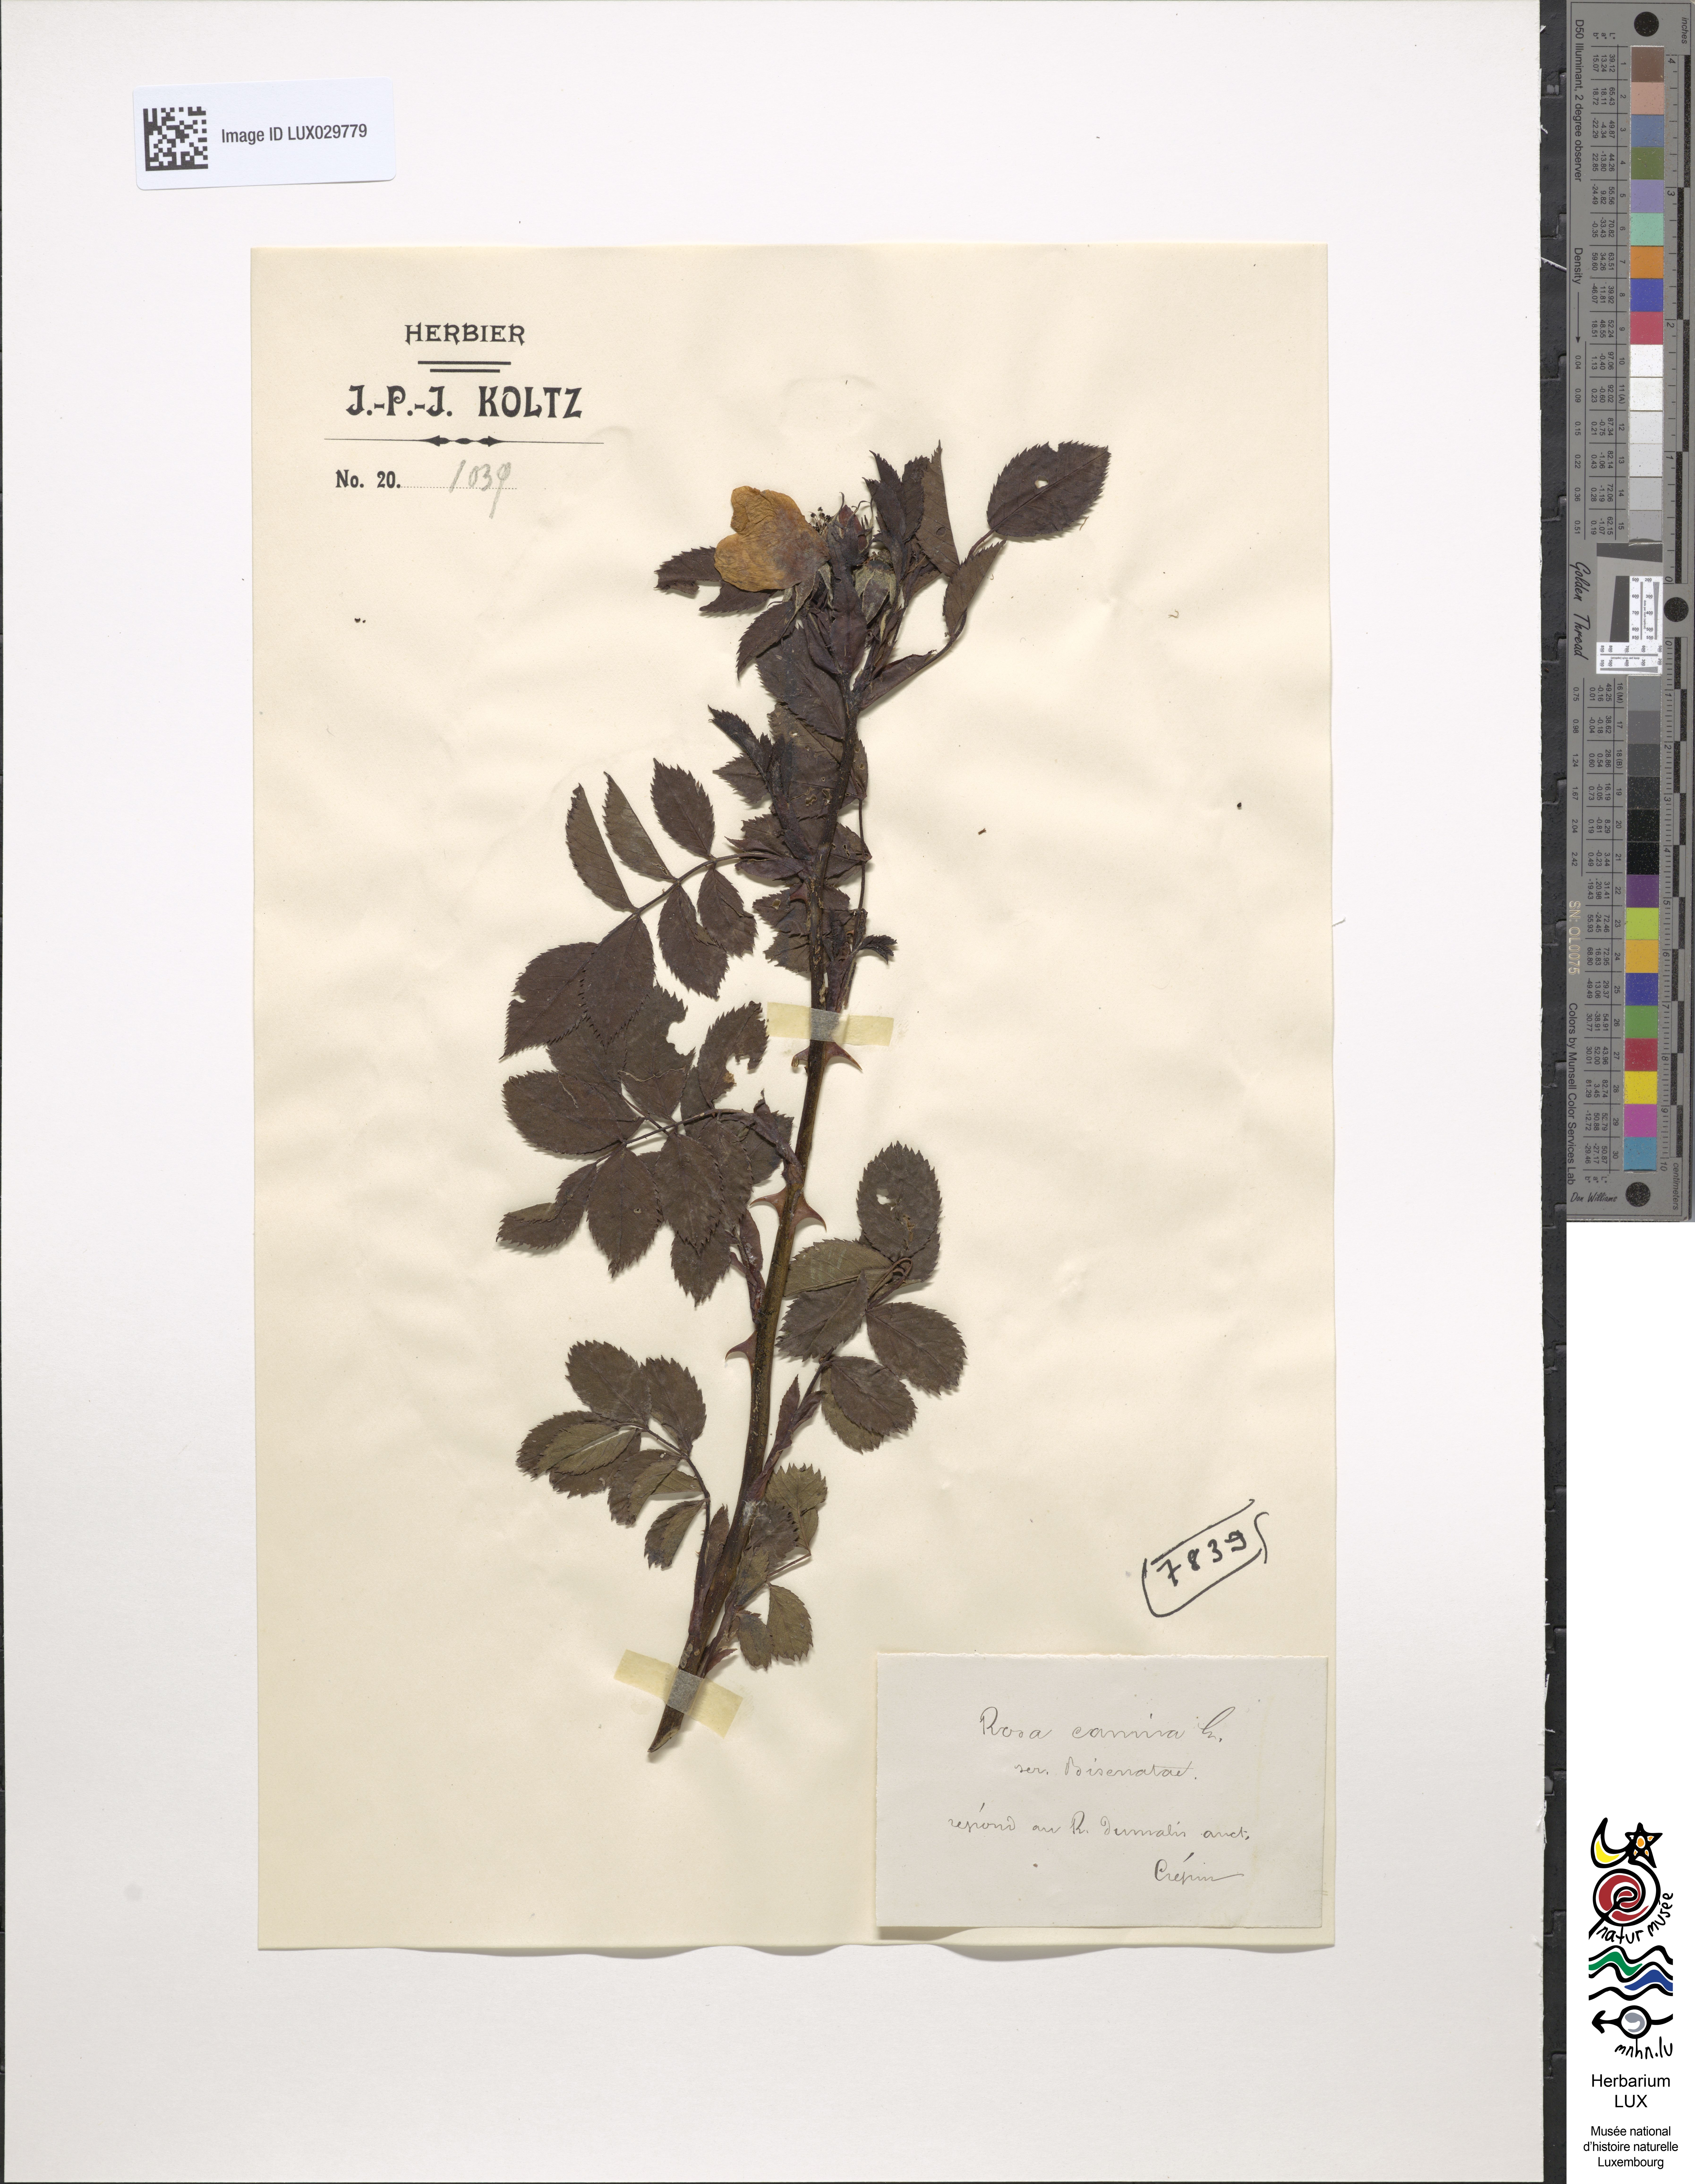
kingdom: Plantae
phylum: Tracheophyta
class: Magnoliopsida
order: Rosales
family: Rosaceae
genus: Rosa
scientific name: Rosa canina
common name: Dog rose
